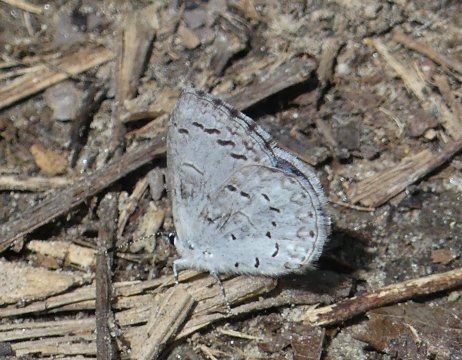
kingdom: Animalia
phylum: Arthropoda
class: Insecta
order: Lepidoptera
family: Lycaenidae
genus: Celastrina
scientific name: Celastrina lucia
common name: Northern Spring Azure
